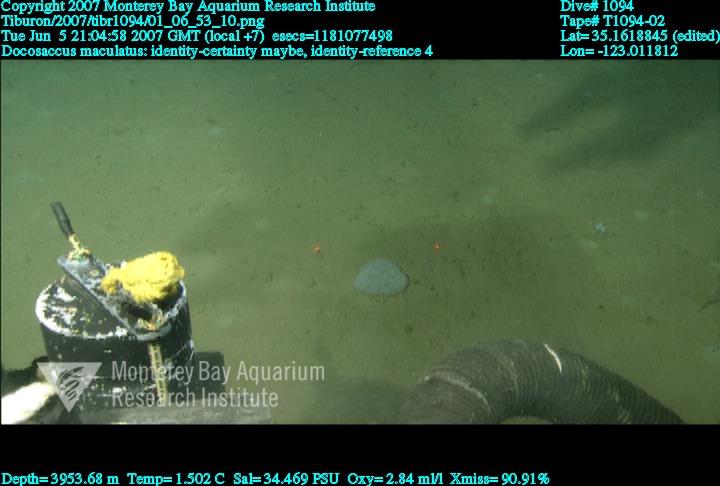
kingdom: Animalia
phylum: Porifera
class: Hexactinellida
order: Lyssacinosida
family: Euplectellidae
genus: Docosaccus
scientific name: Docosaccus maculatus
